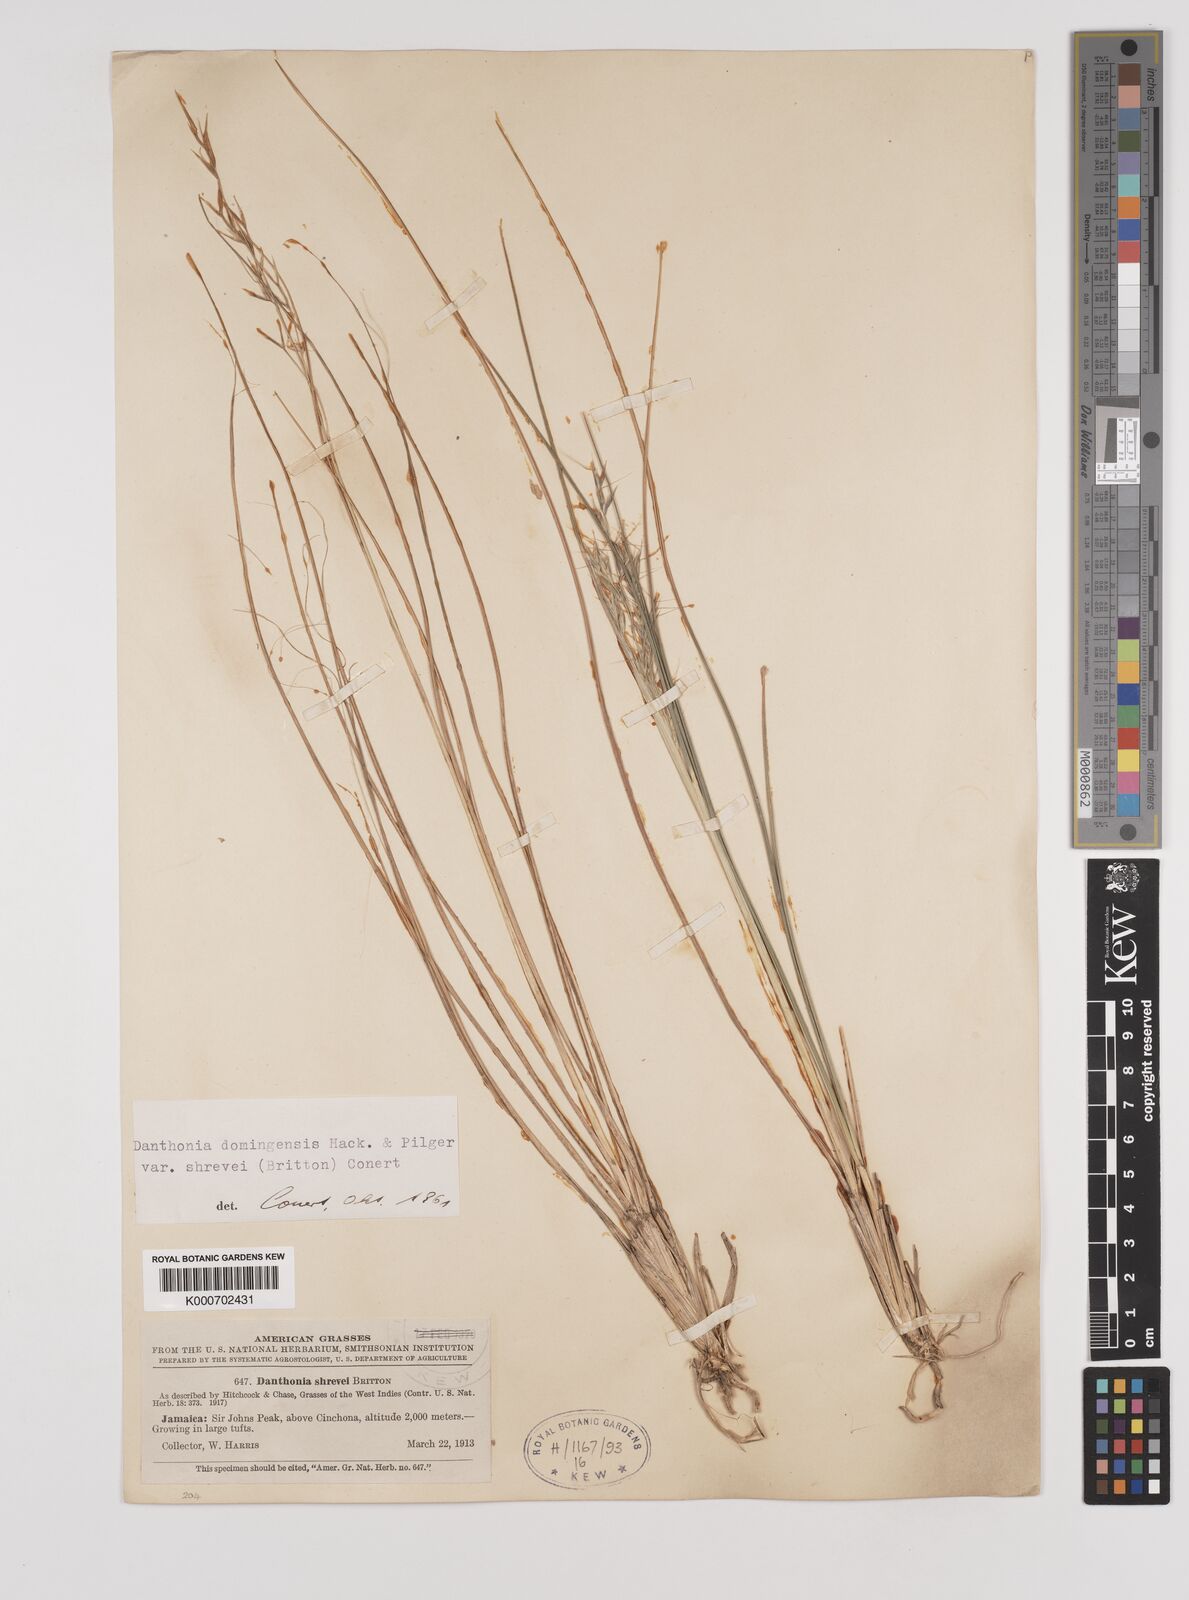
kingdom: Plantae
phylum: Tracheophyta
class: Liliopsida
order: Poales
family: Poaceae
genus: Danthonia
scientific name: Danthonia domingensis
